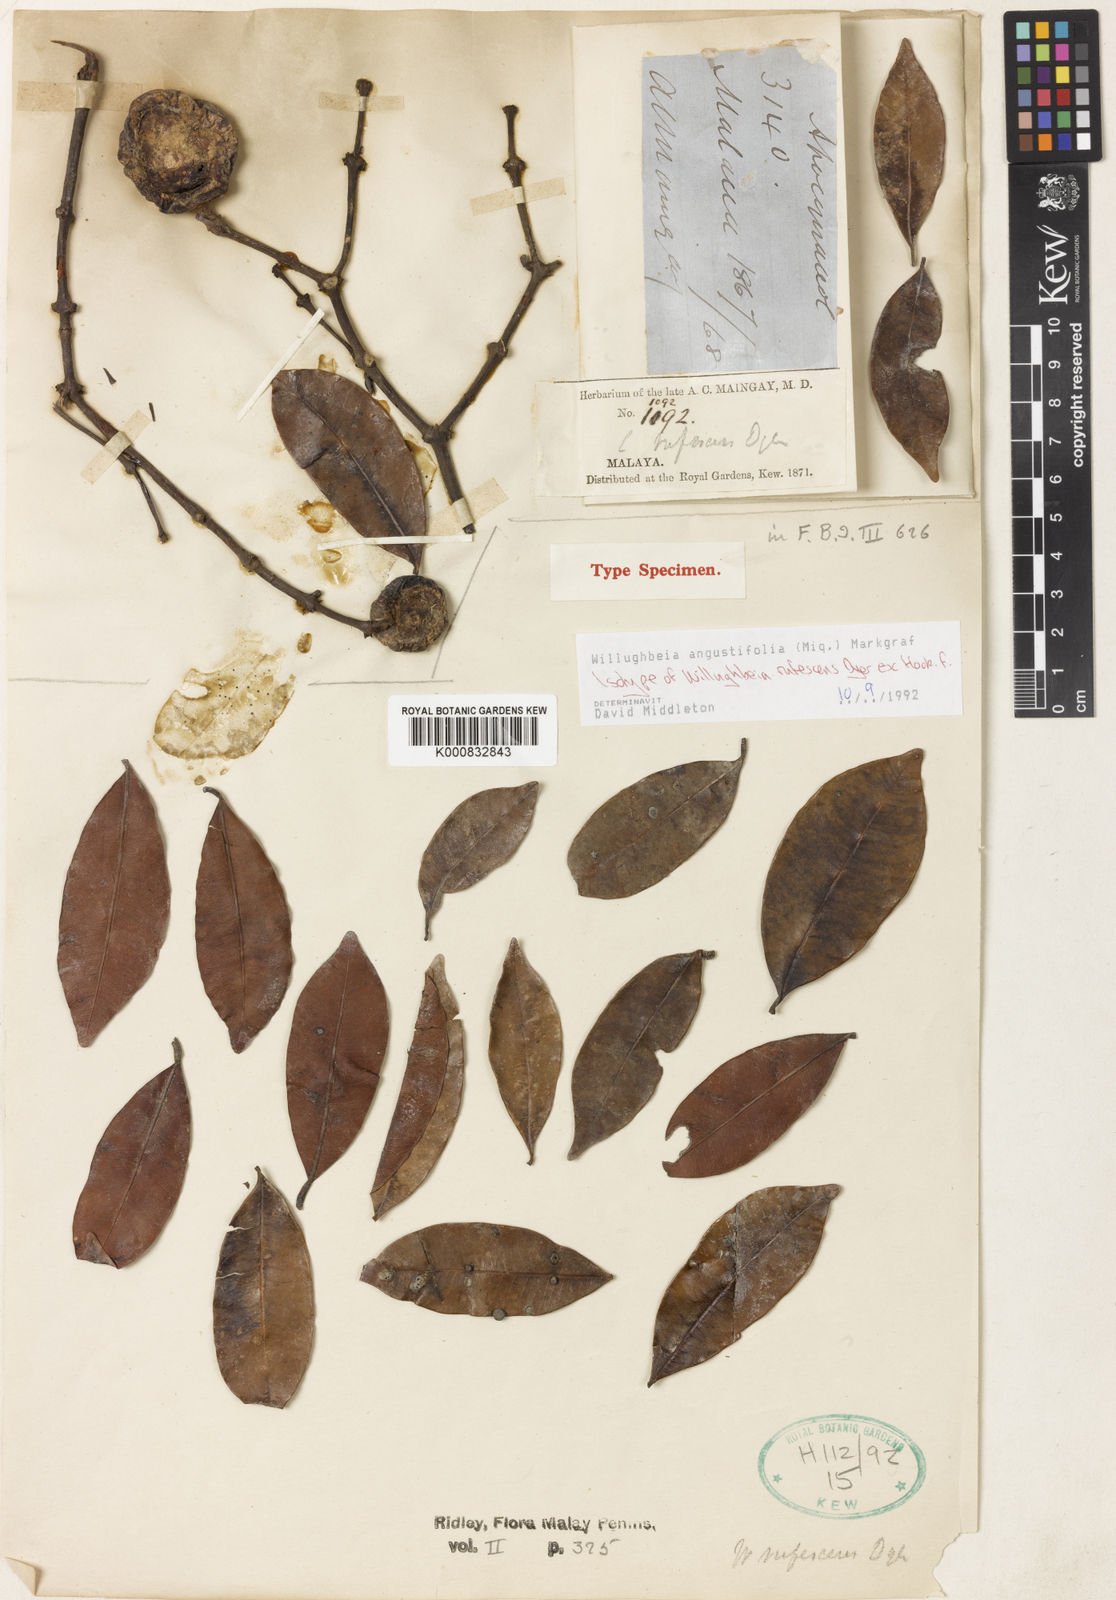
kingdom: Plantae
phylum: Tracheophyta
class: Magnoliopsida
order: Gentianales
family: Apocynaceae
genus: Willughbeia
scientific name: Willughbeia angustifolia
